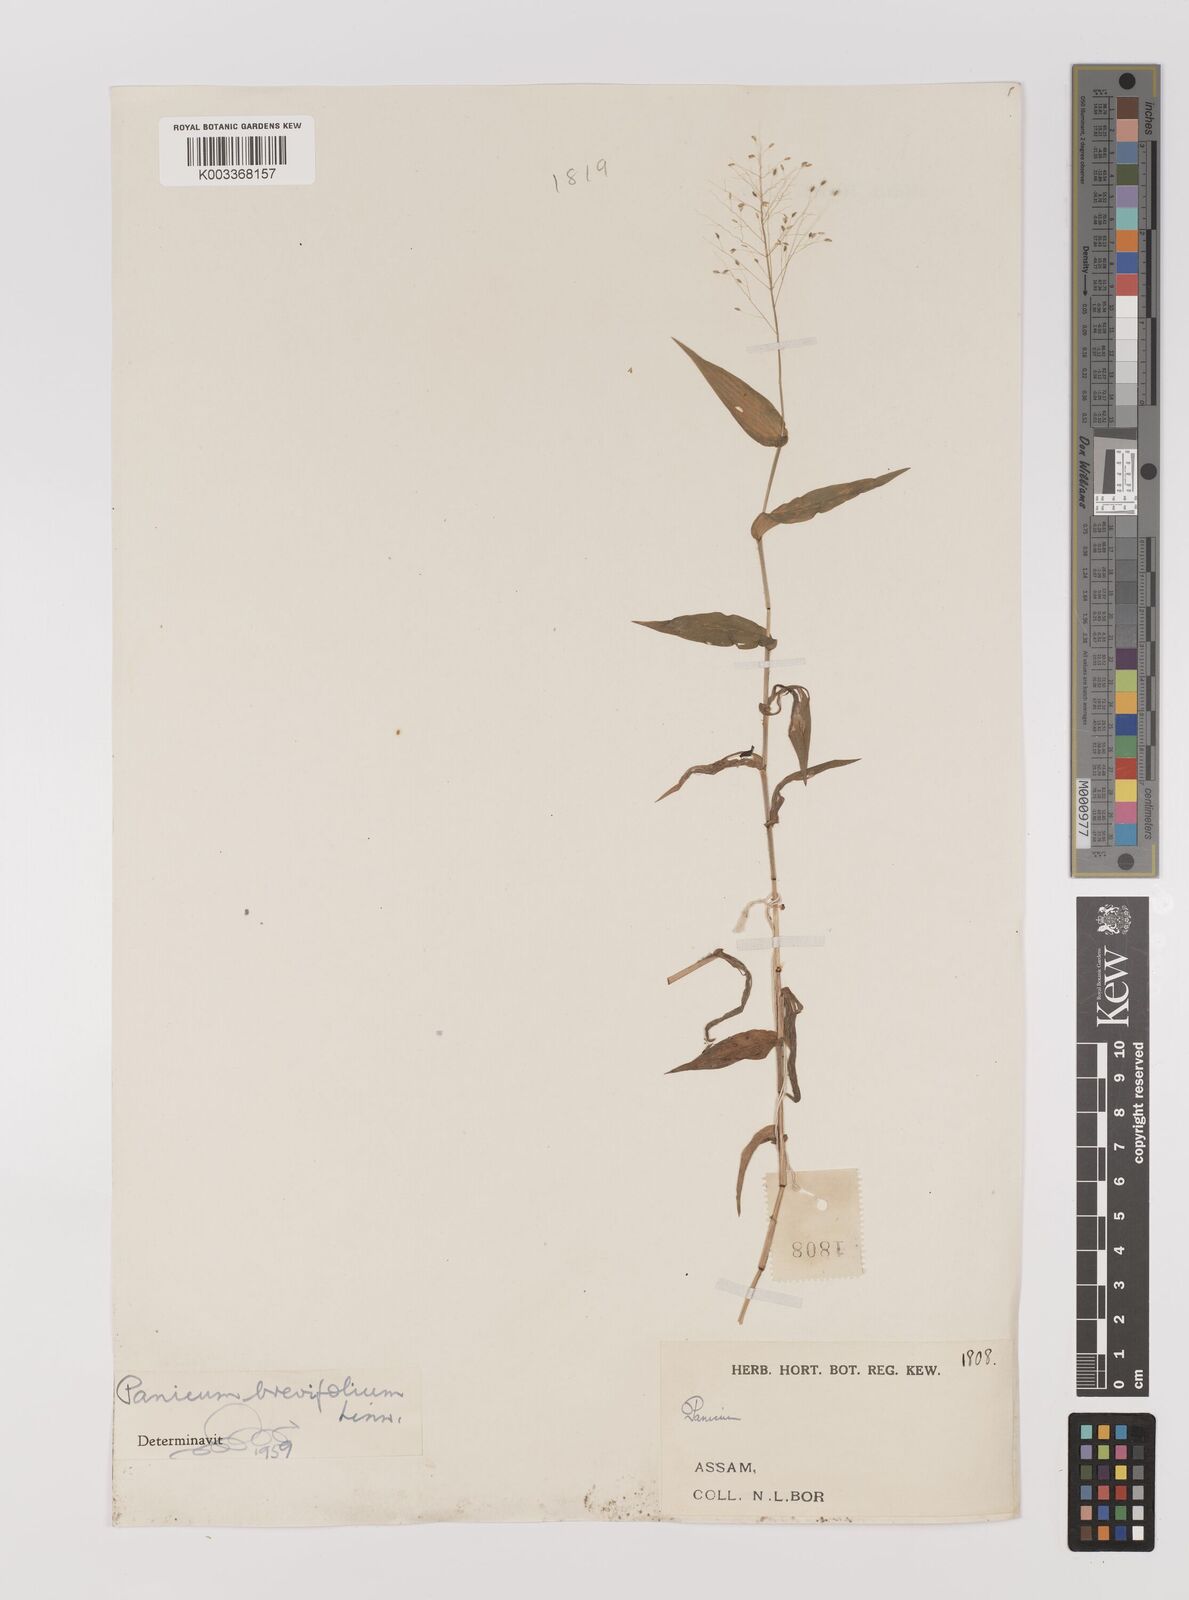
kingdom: Plantae
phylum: Tracheophyta
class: Liliopsida
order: Poales
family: Poaceae
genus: Panicum
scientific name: Panicum brevifolium
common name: Shortleaf panic grass
